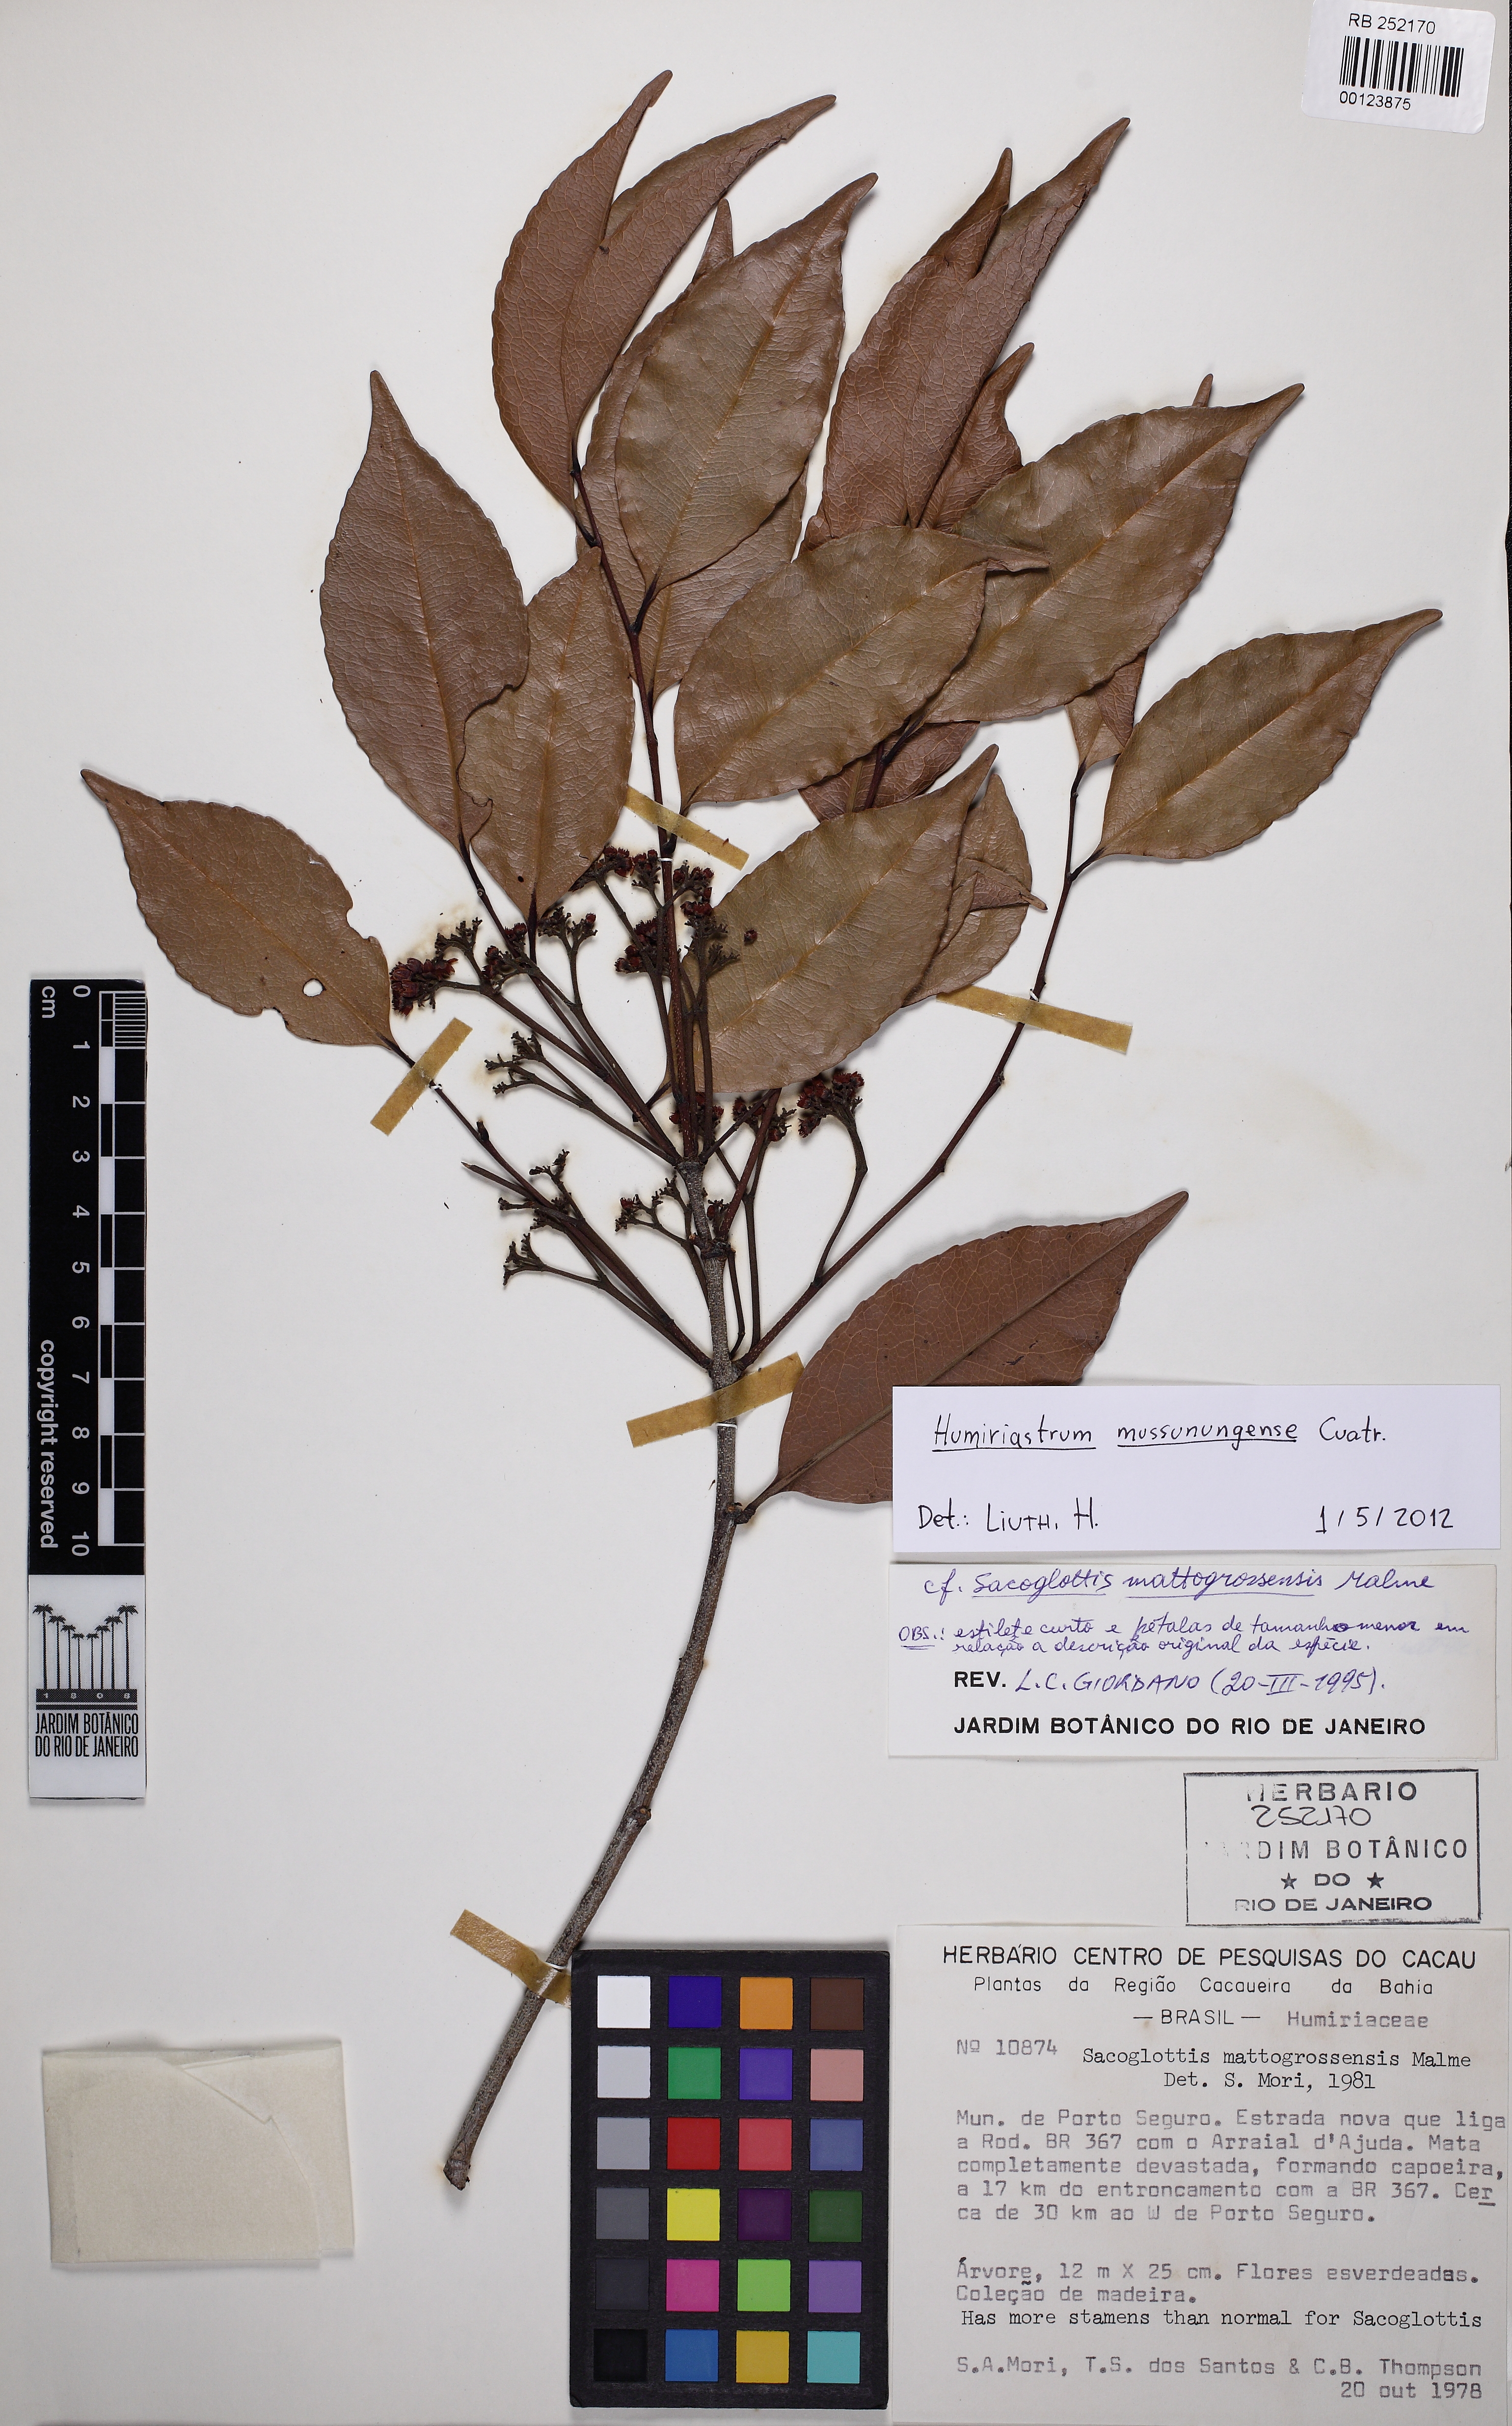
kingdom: Plantae
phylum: Tracheophyta
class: Magnoliopsida
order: Malpighiales
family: Humiriaceae
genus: Humiriastrum
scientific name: Humiriastrum mussunungense
